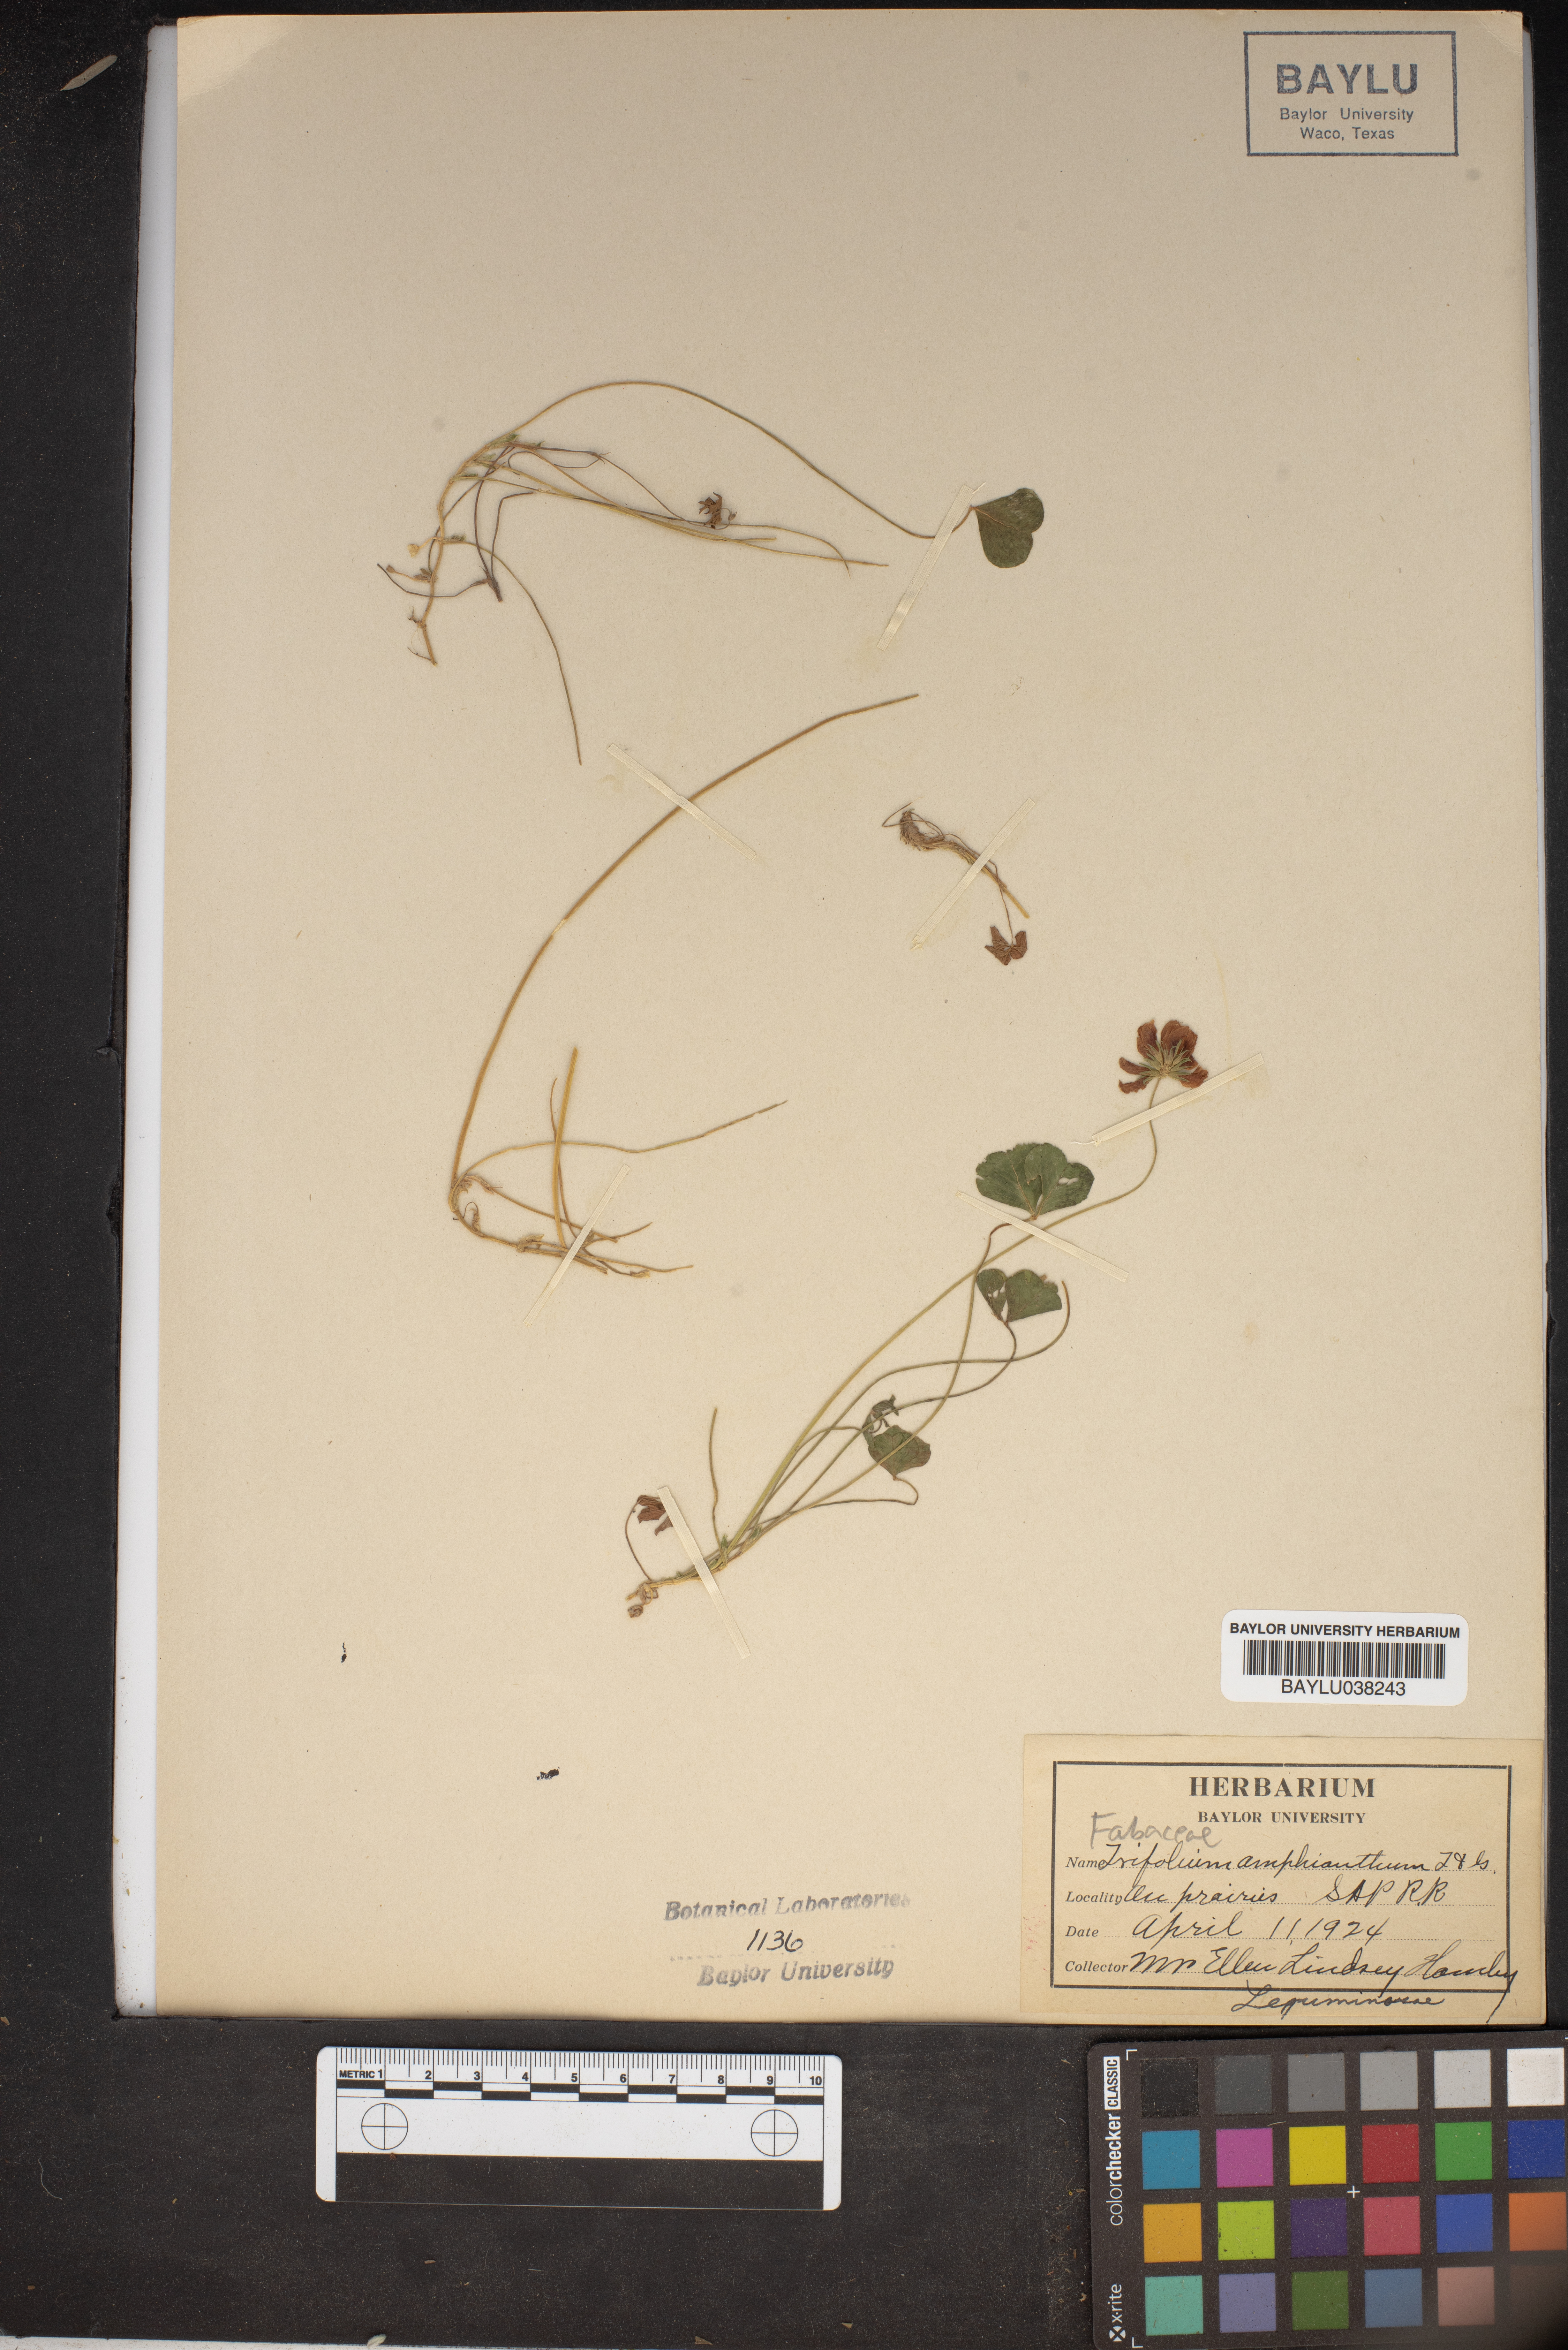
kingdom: Plantae
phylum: Tracheophyta
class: Magnoliopsida
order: Fabales
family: Fabaceae
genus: Trifolium
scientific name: Trifolium amphianthum
